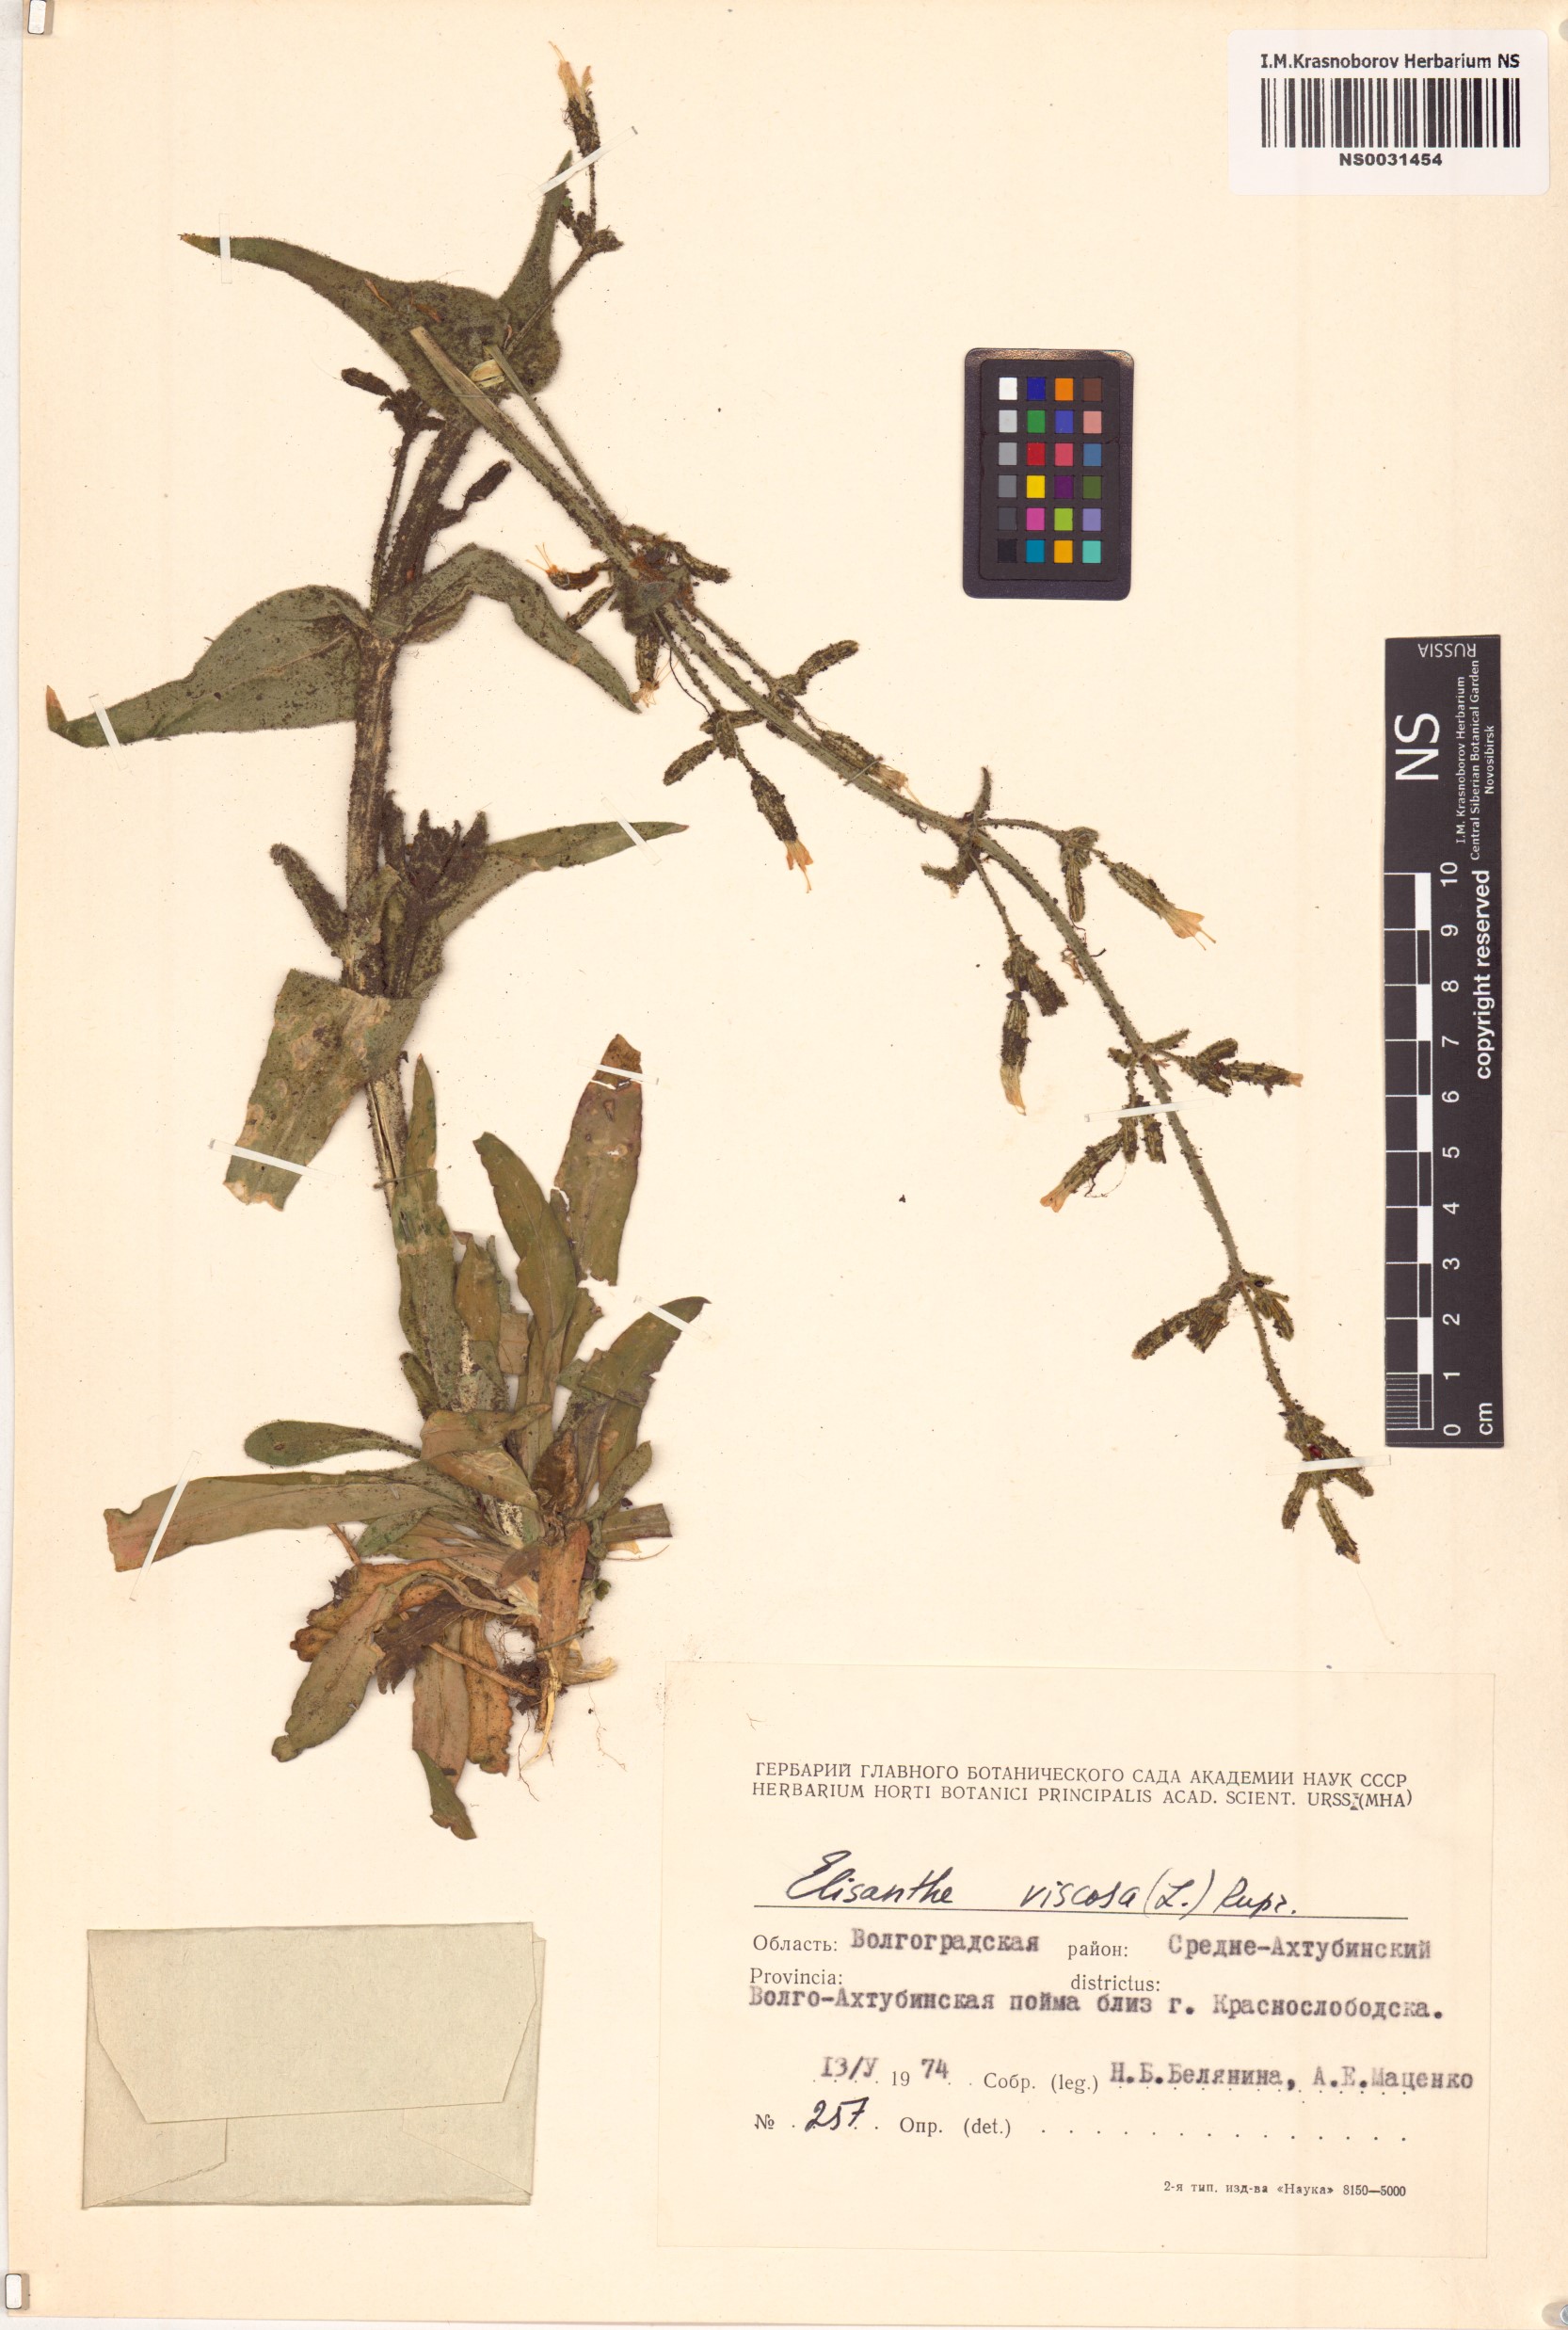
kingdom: Plantae
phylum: Tracheophyta
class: Magnoliopsida
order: Caryophyllales
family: Caryophyllaceae
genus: Silene
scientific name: Silene viscosa
